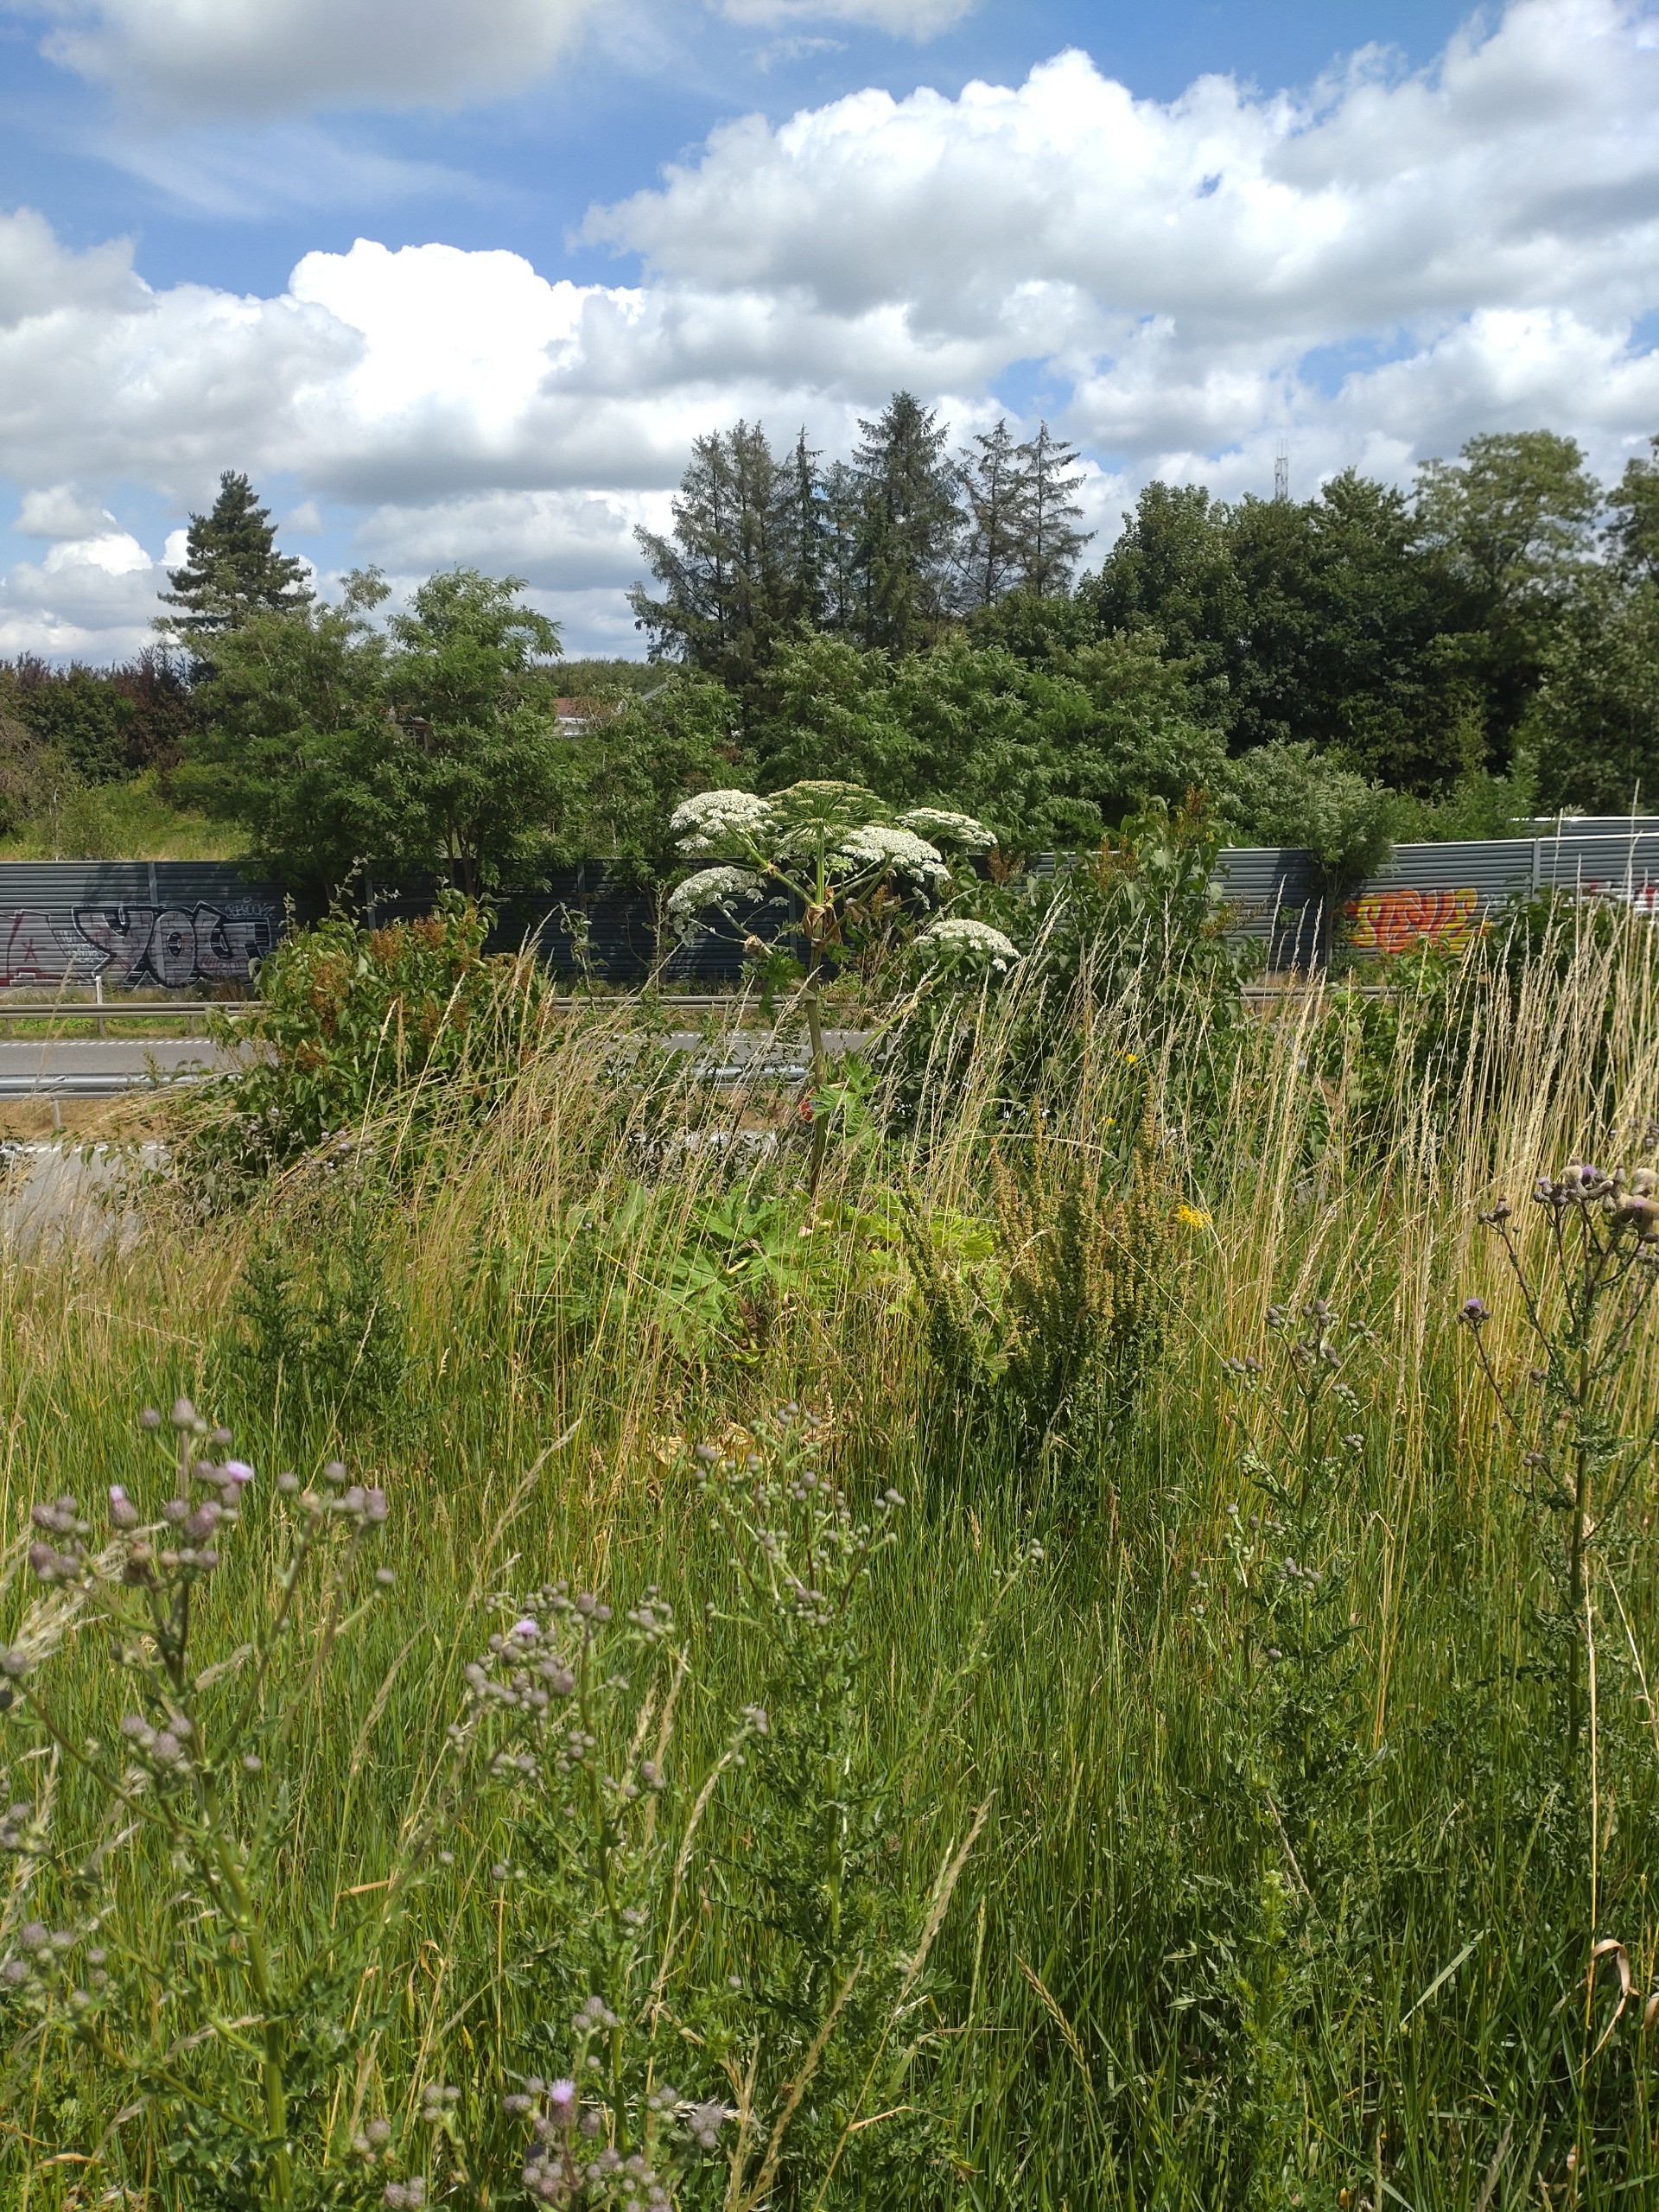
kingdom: Plantae
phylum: Tracheophyta
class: Magnoliopsida
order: Apiales
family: Apiaceae
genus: Heracleum
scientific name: Heracleum mantegazzianum
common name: Kæmpe-bjørneklo
